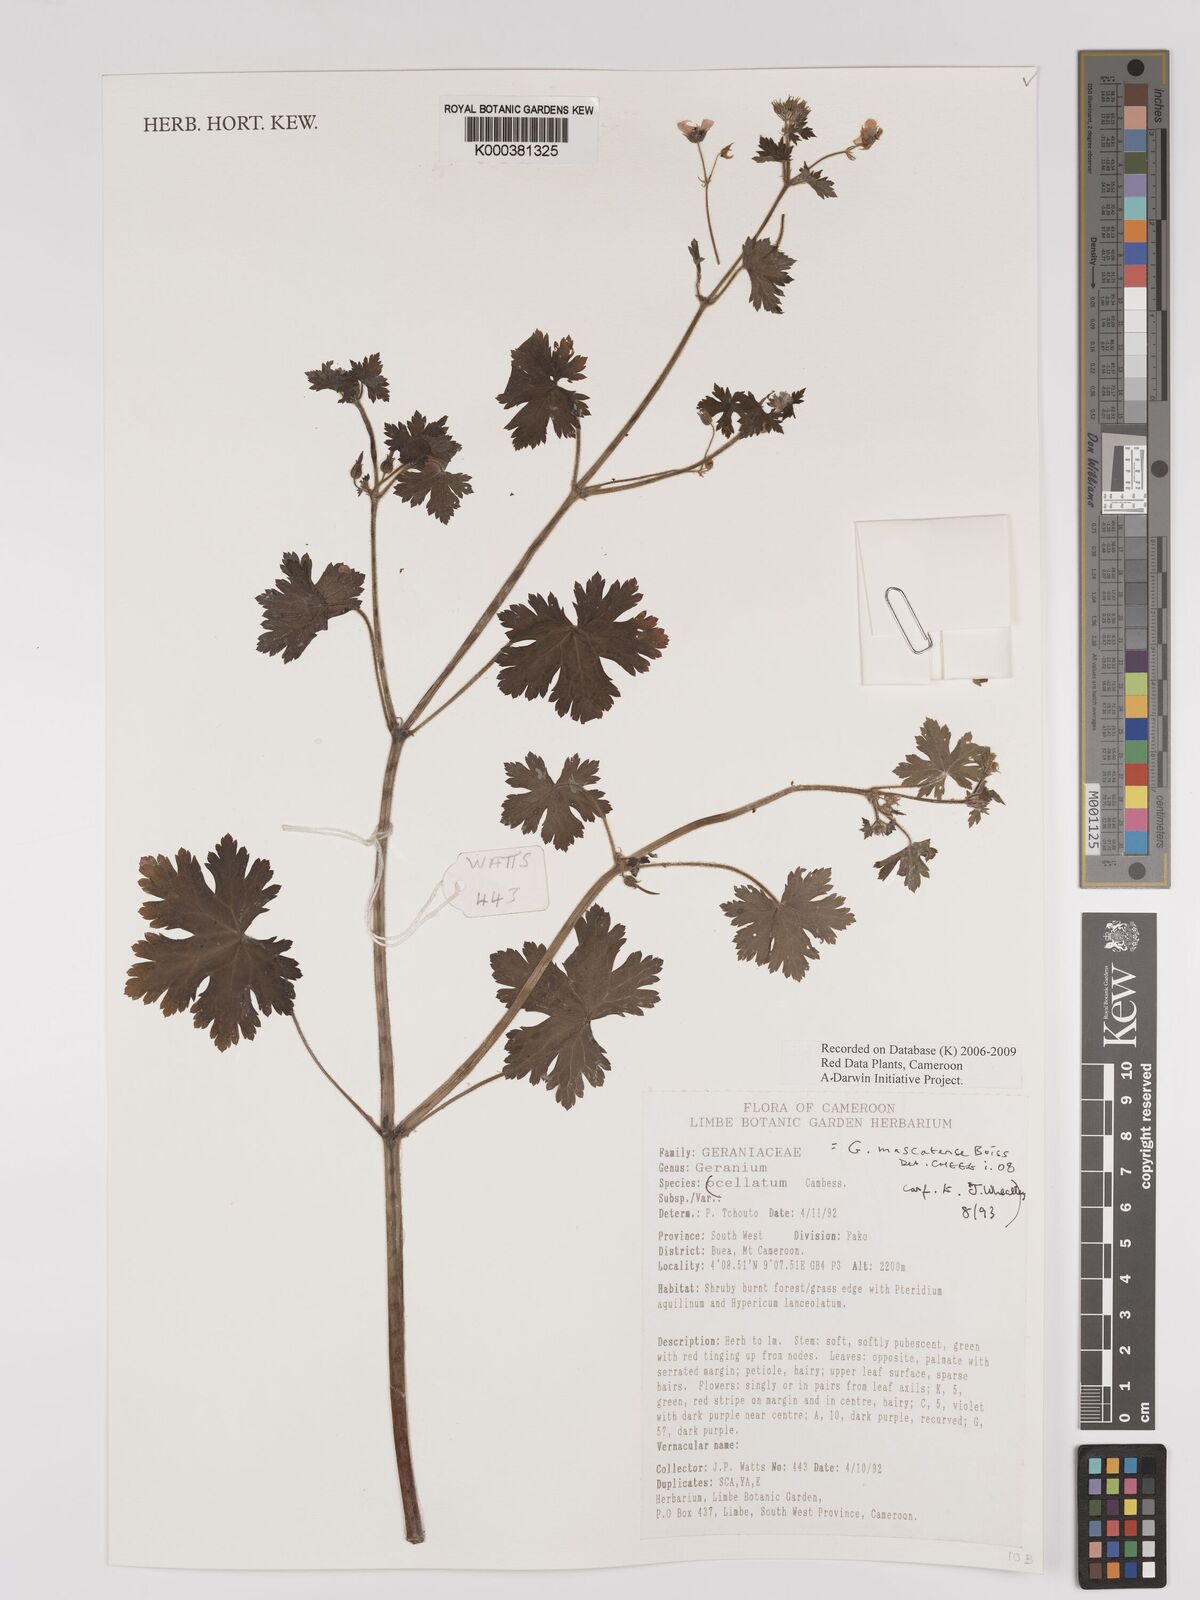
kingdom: Plantae
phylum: Tracheophyta
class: Magnoliopsida
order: Geraniales
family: Geraniaceae
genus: Geranium
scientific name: Geranium mascatense
